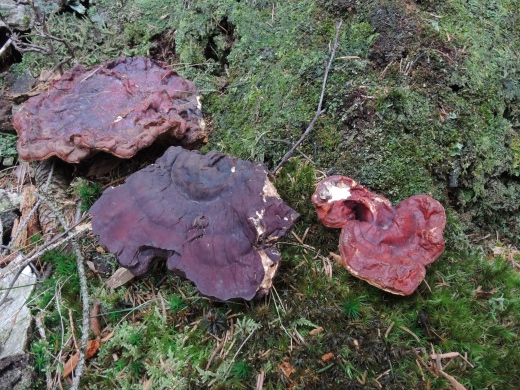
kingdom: Fungi
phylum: Basidiomycota
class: Agaricomycetes
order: Polyporales
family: Polyporaceae
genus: Ganoderma
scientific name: Ganoderma lucidum
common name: skinnende lakporesvamp
